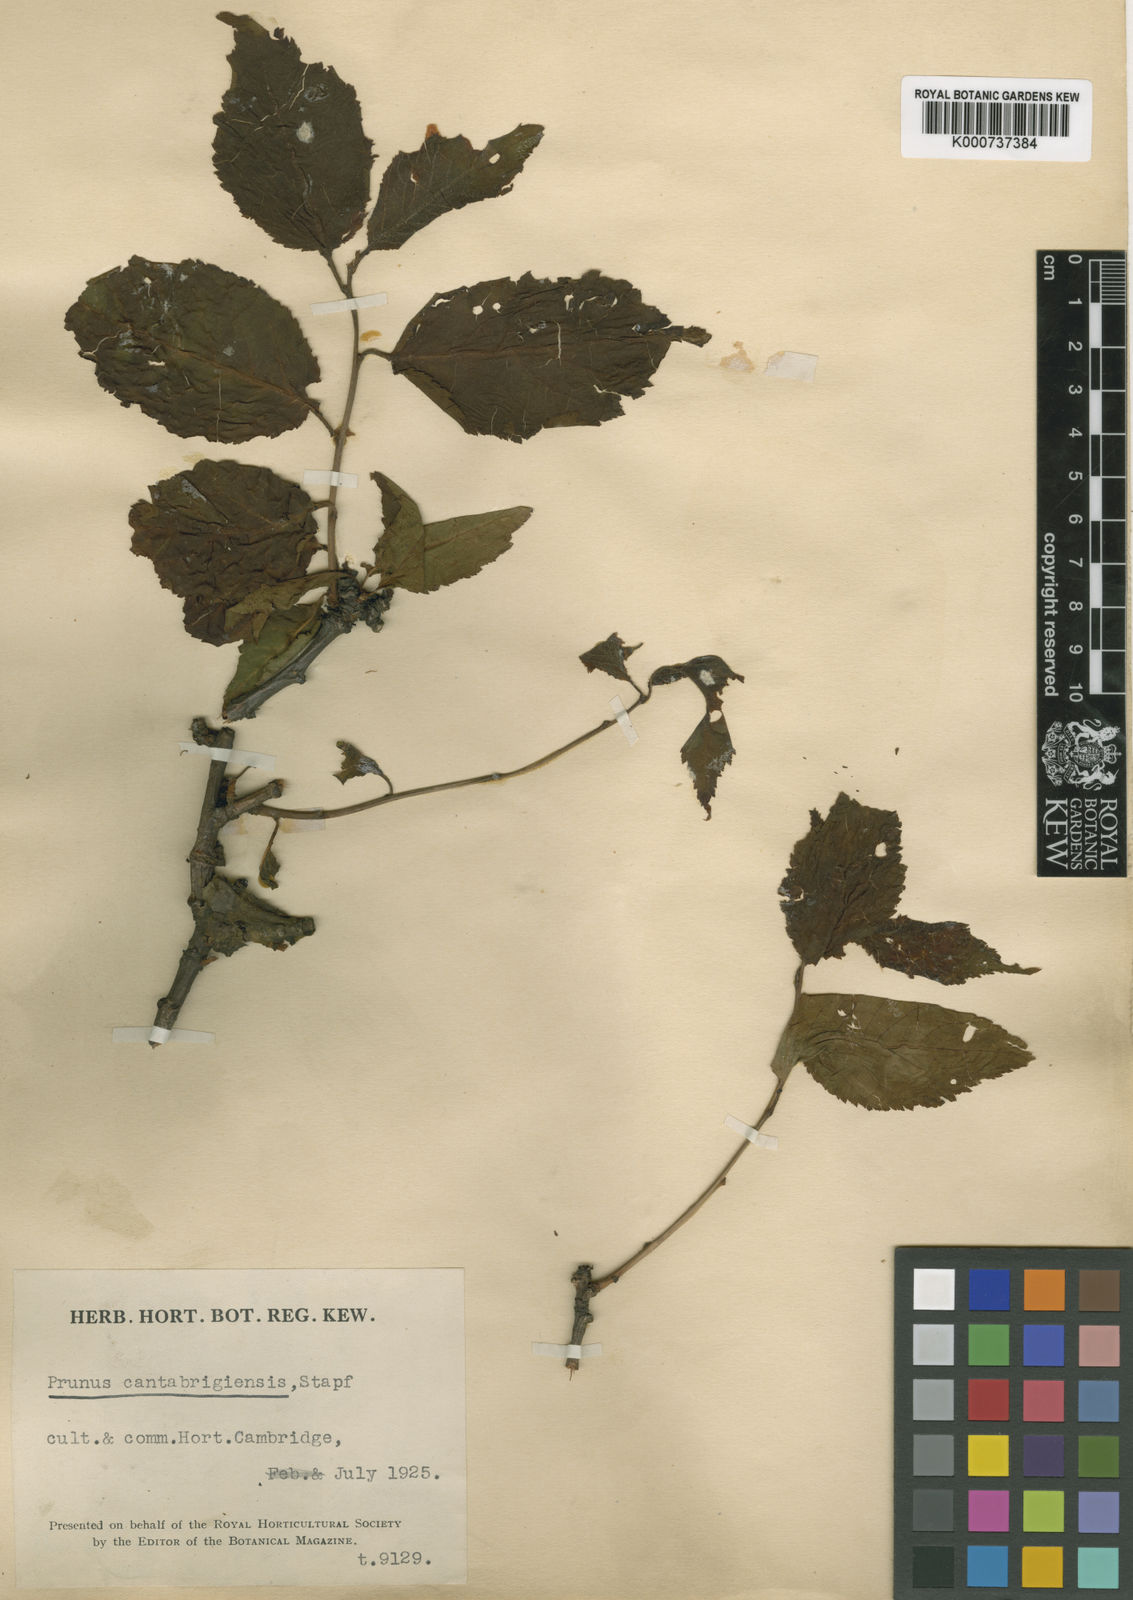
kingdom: Plantae
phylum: Tracheophyta
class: Magnoliopsida
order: Rosales
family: Rosaceae
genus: Prunus
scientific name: Prunus pseudocerasus
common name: Ying tao cherry
